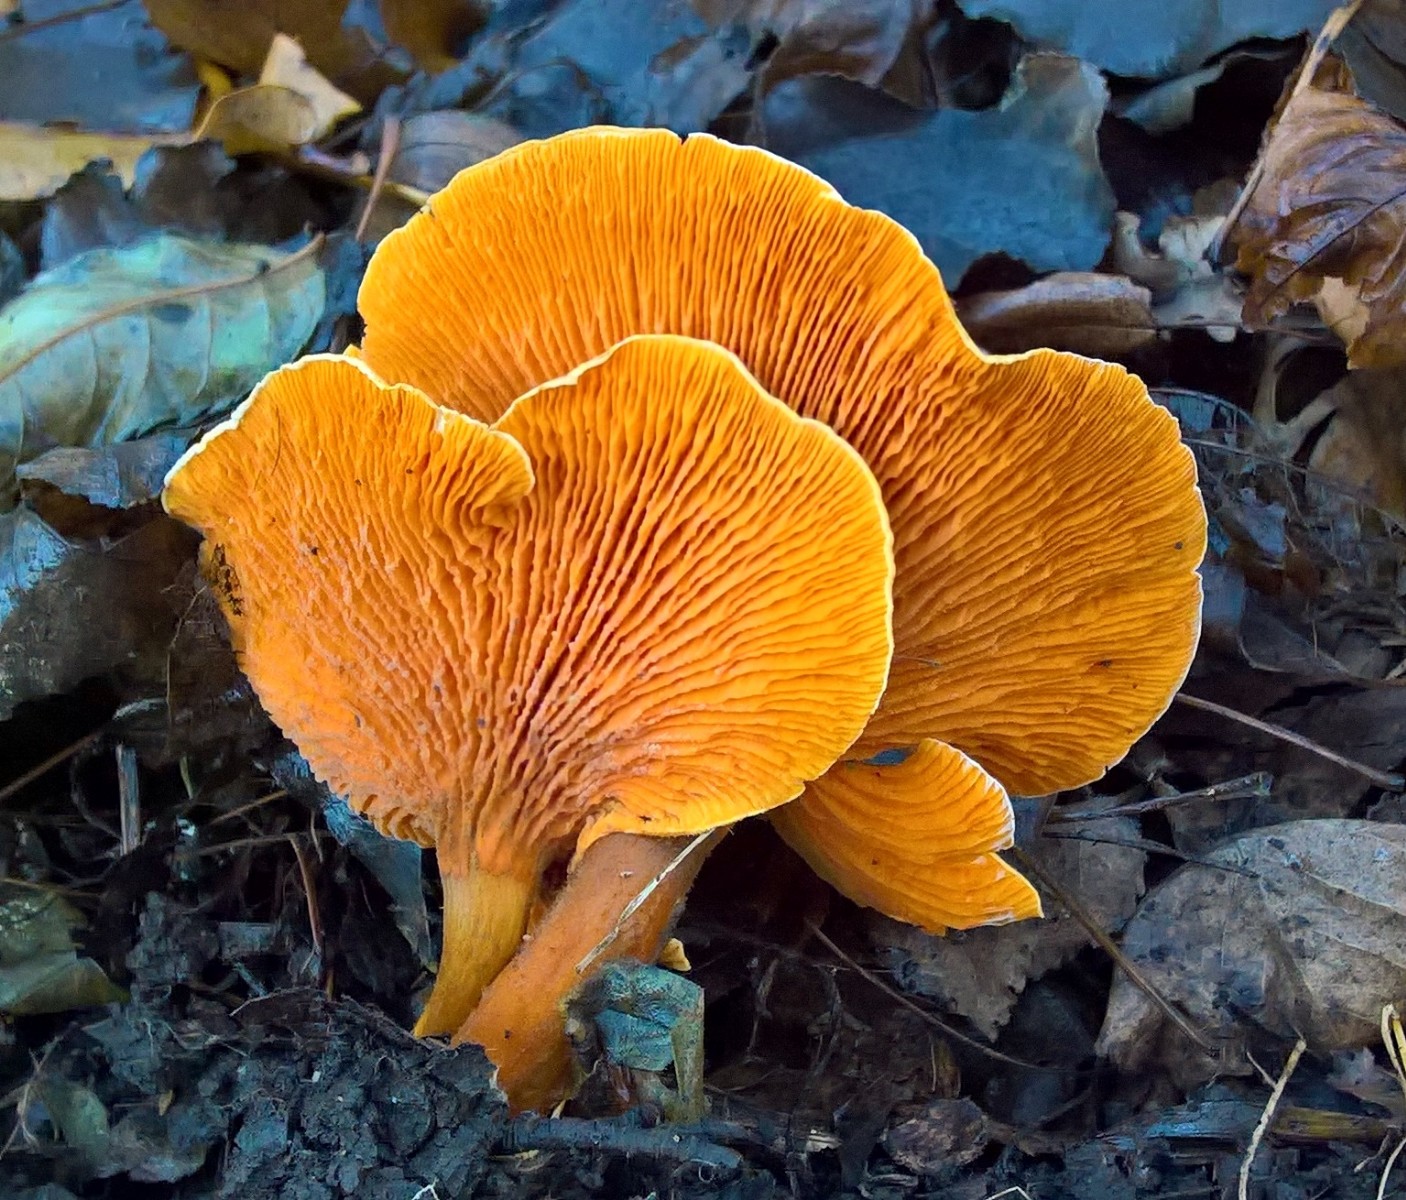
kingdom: Fungi
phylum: Basidiomycota
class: Agaricomycetes
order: Boletales
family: Hygrophoropsidaceae
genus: Hygrophoropsis
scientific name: Hygrophoropsis aurantiaca
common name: almindelig orangekantarel
